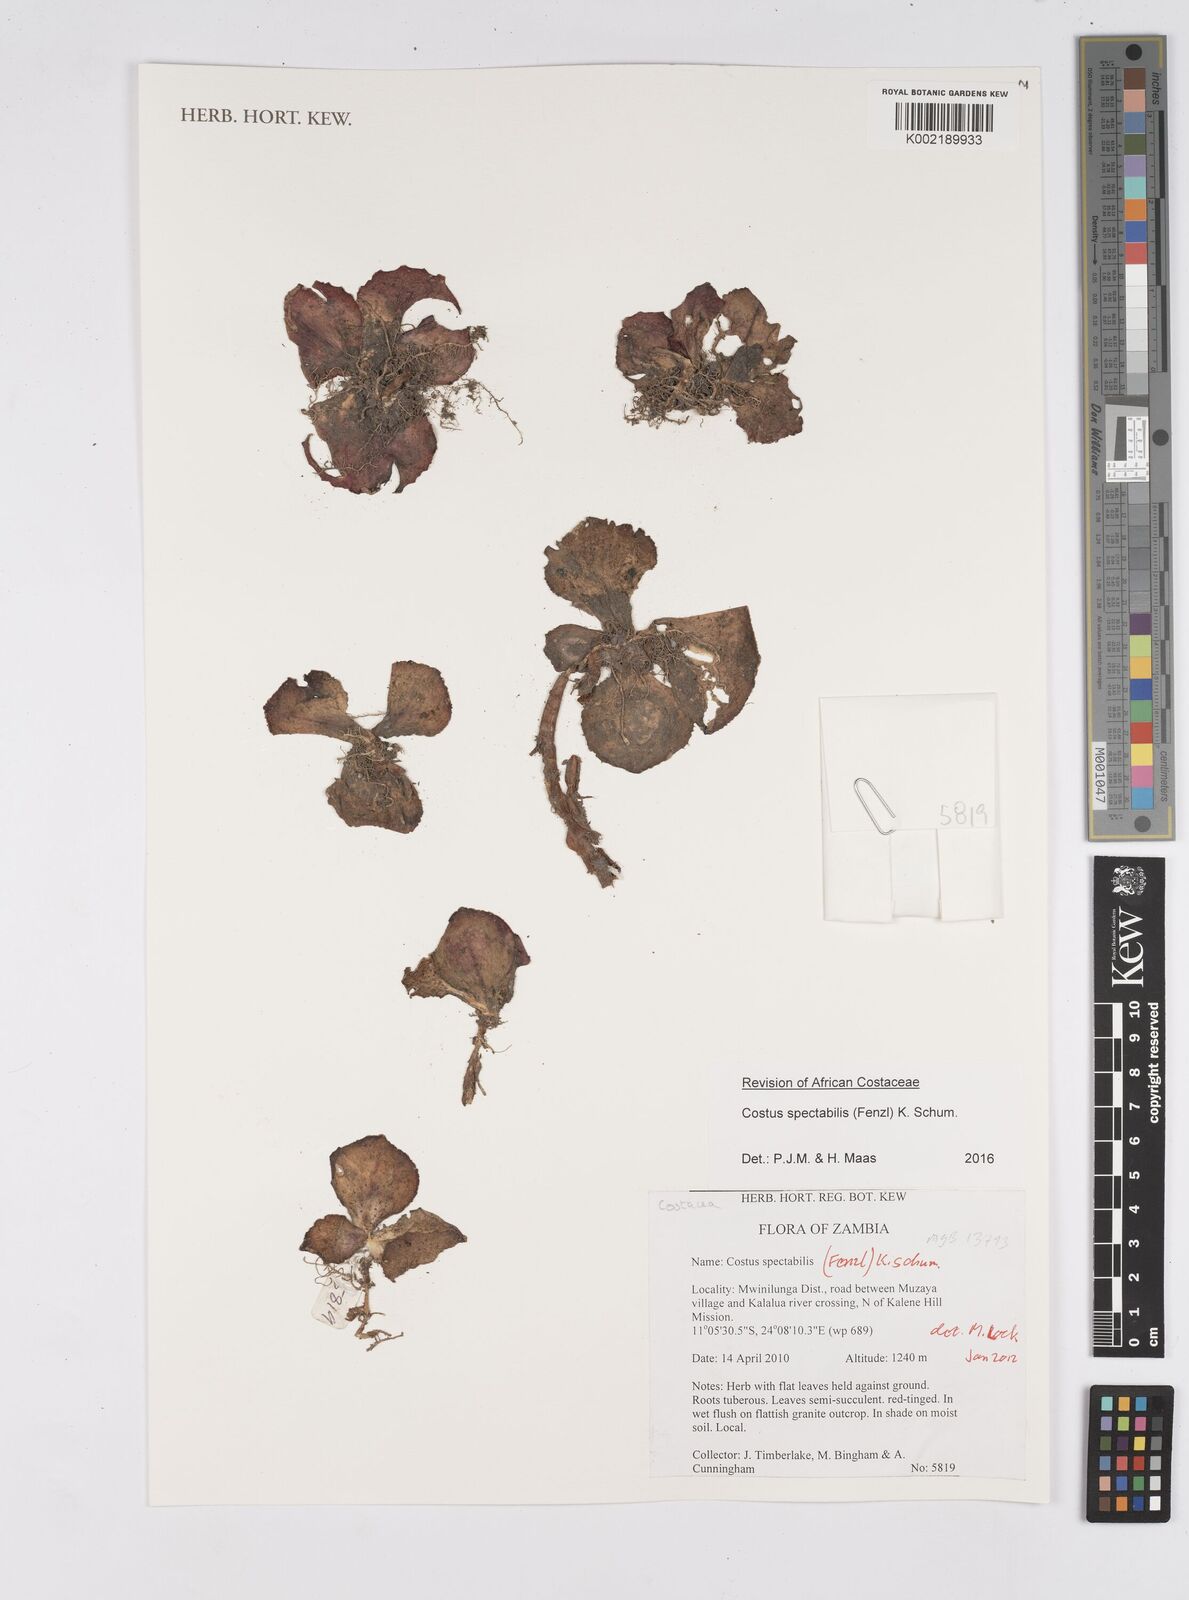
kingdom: Plantae
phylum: Tracheophyta
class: Liliopsida
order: Zingiberales
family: Costaceae
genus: Costus
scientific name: Costus spectabilis
